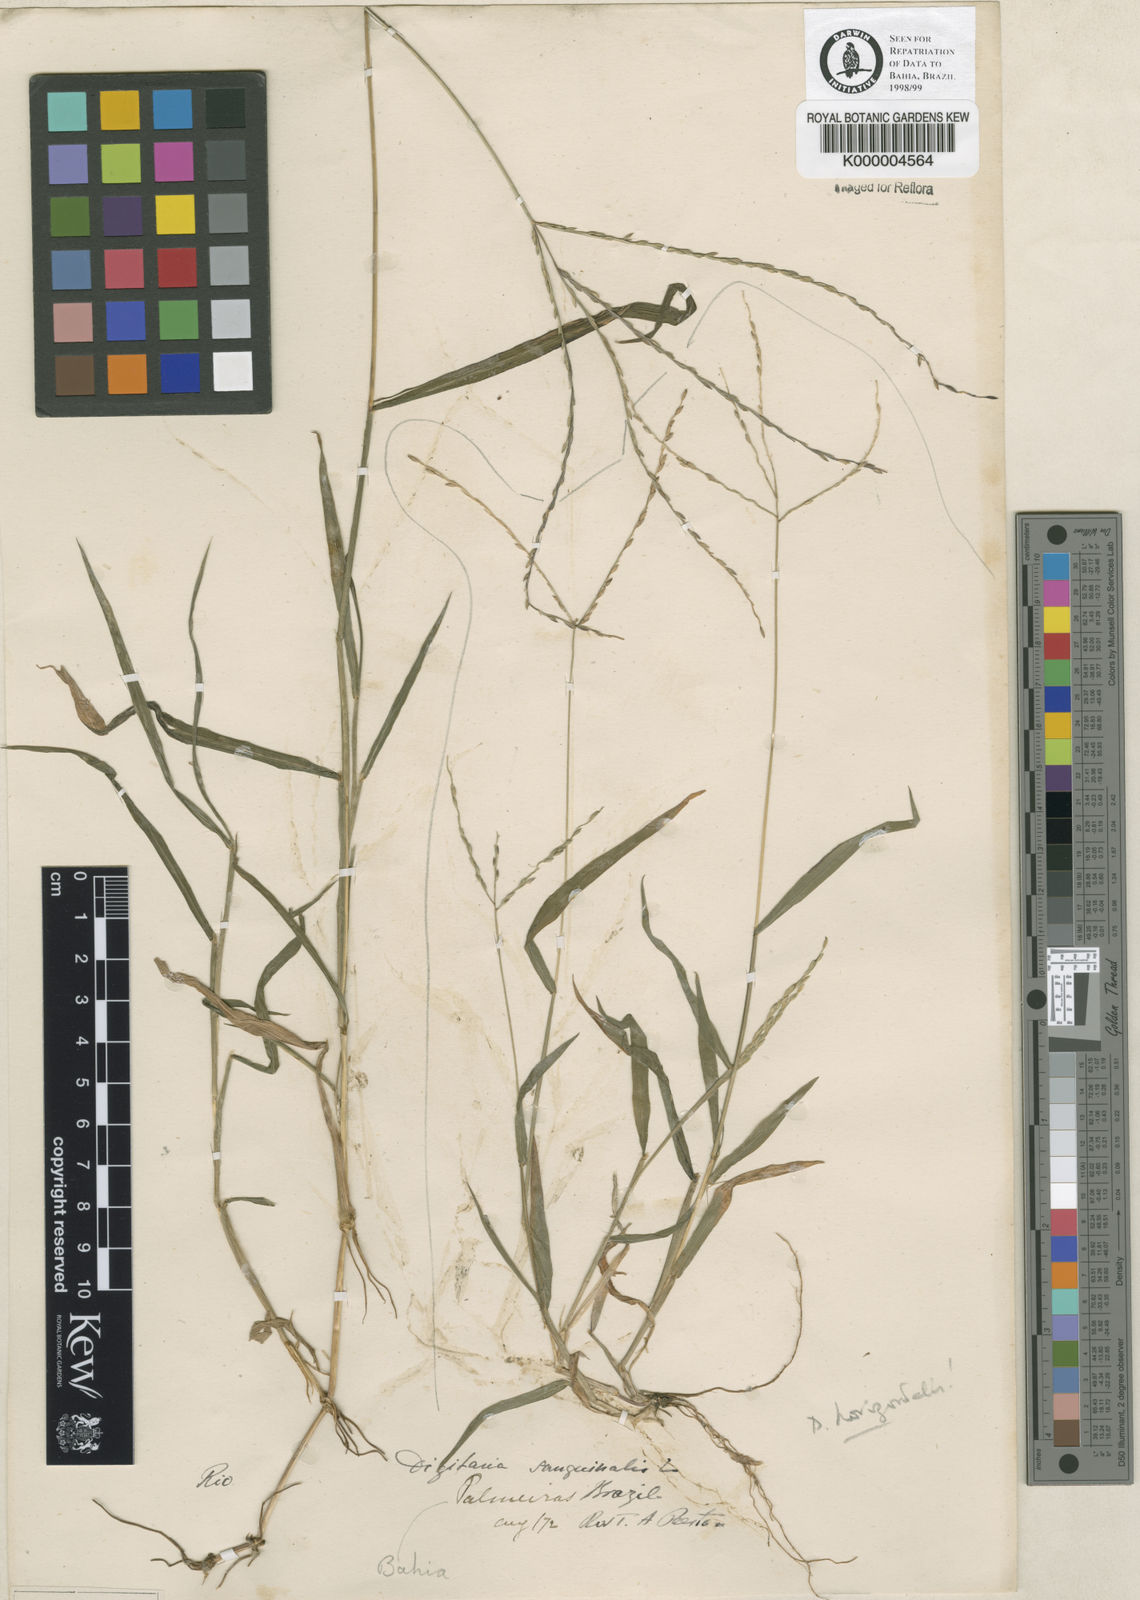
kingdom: Plantae
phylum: Tracheophyta
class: Liliopsida
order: Poales
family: Poaceae
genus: Digitaria
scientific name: Digitaria nuda
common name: Naked crabgrass
